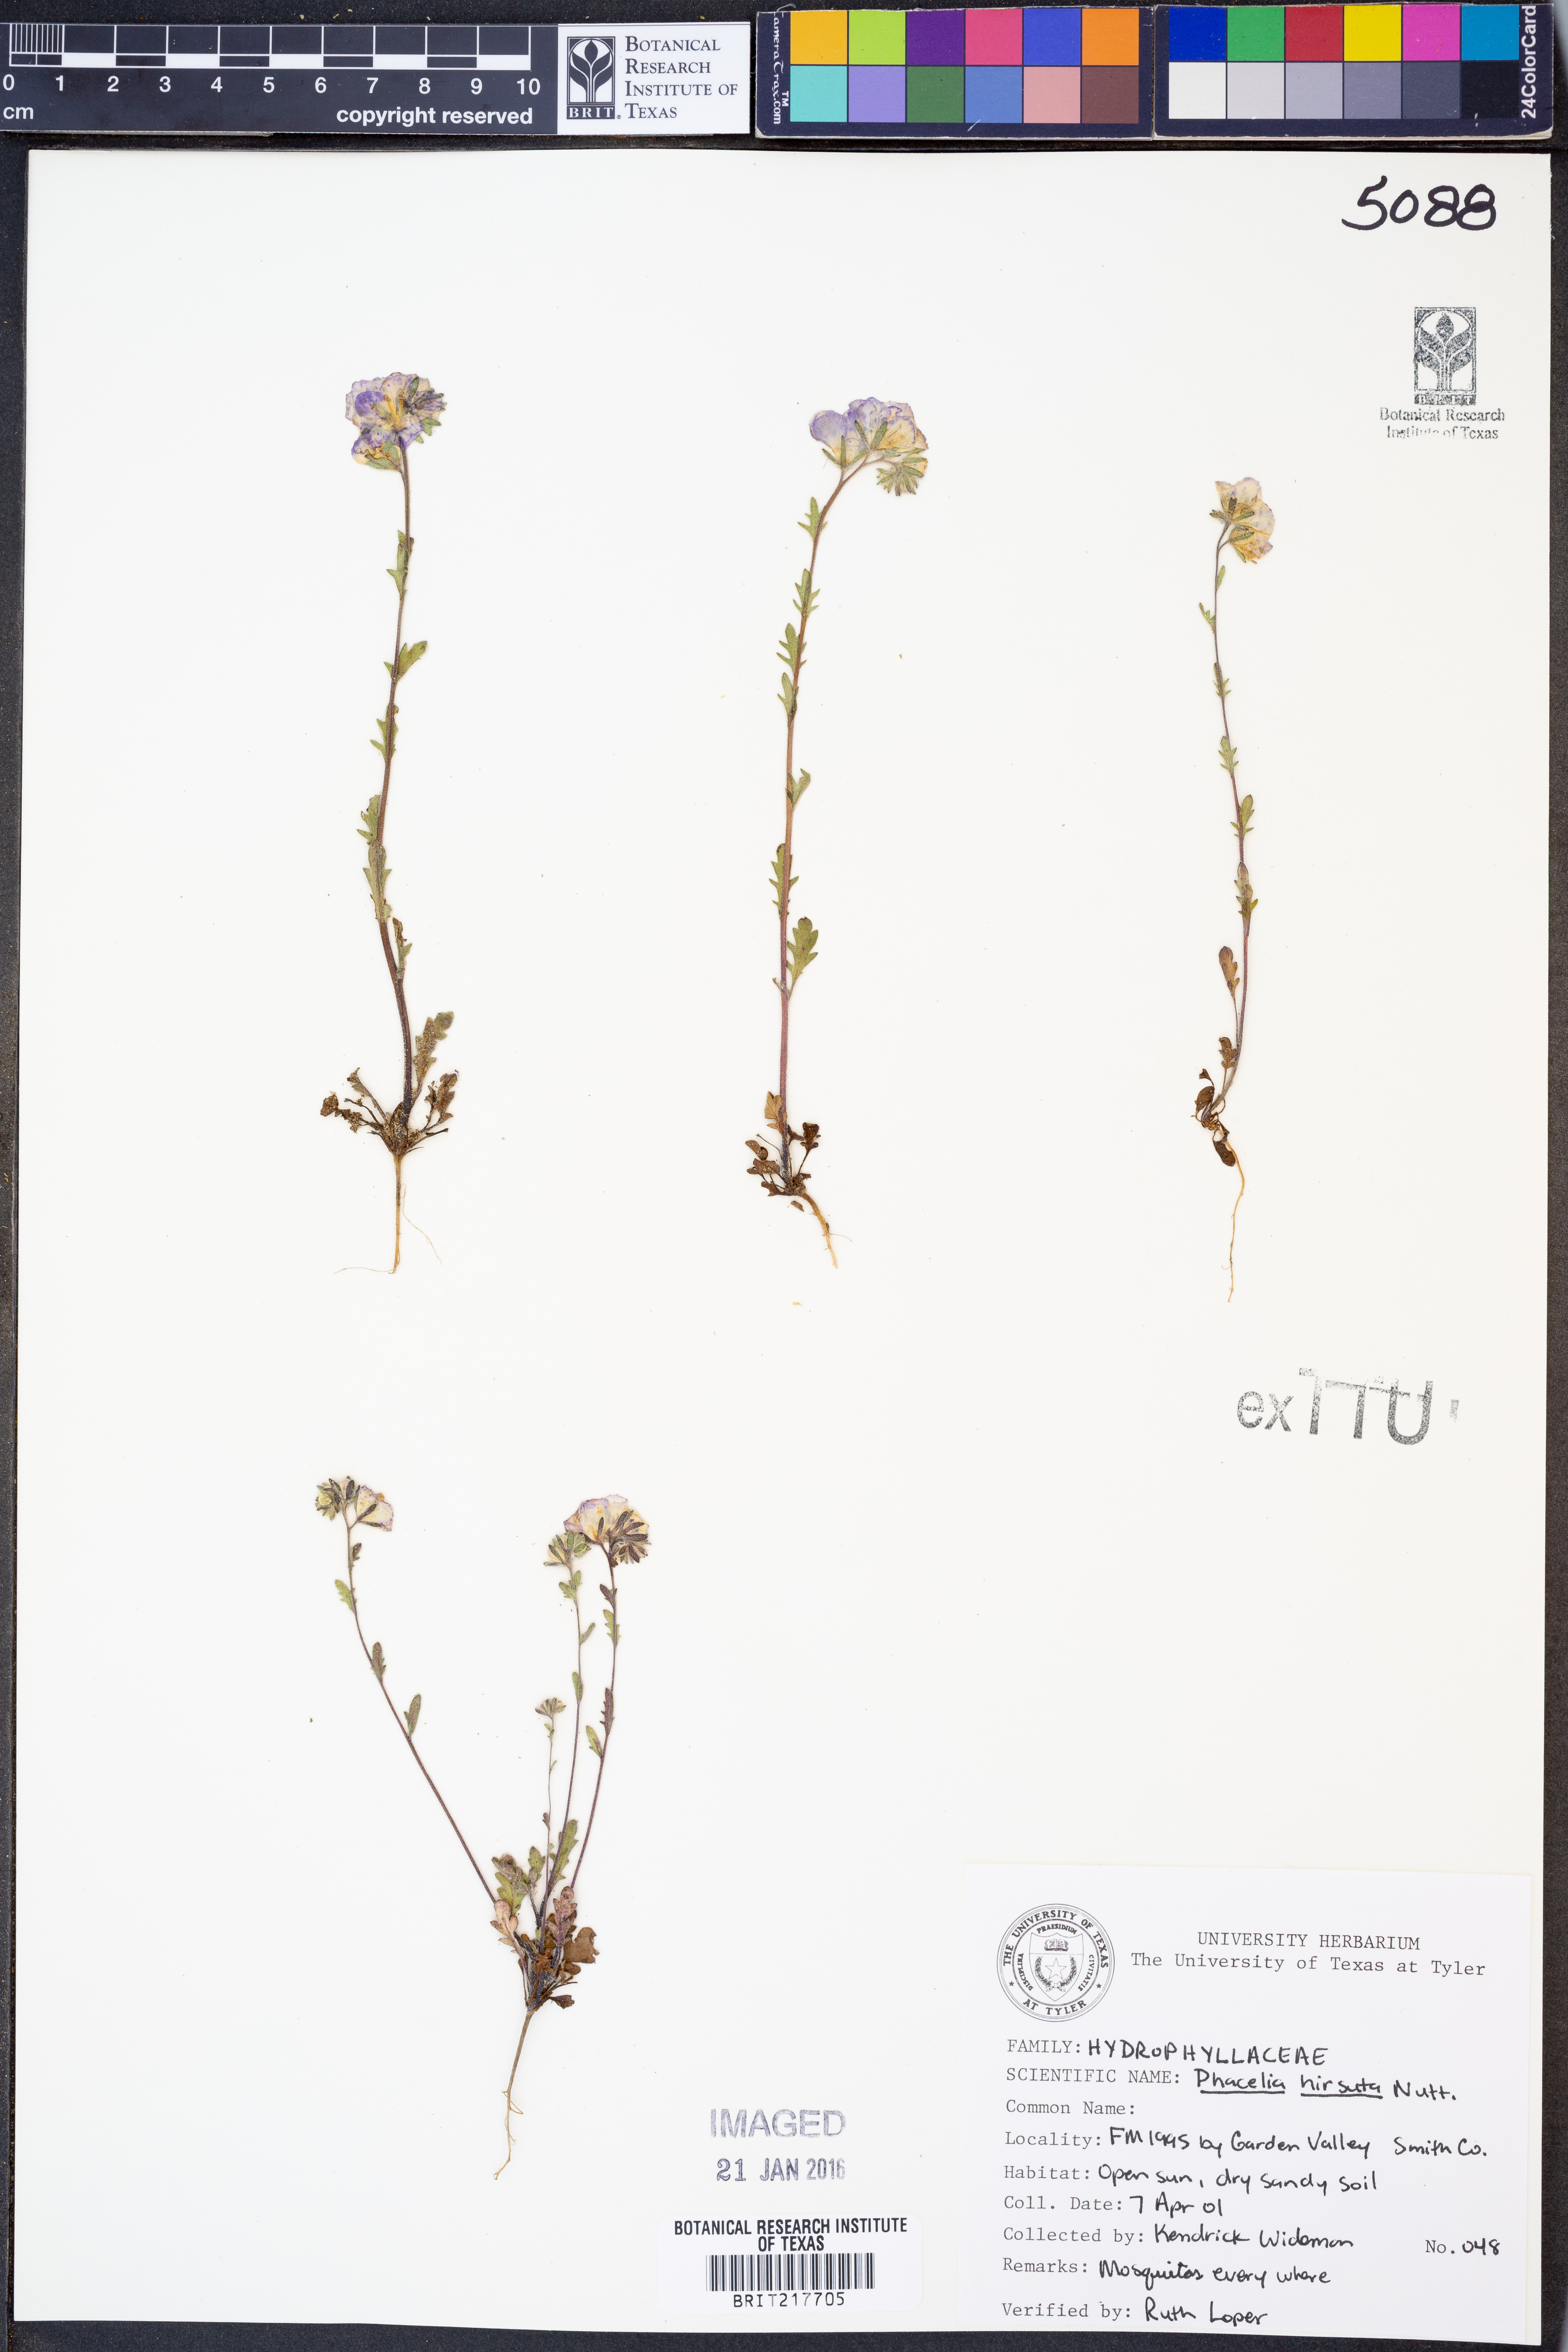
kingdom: Plantae
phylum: Tracheophyta
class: Magnoliopsida
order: Boraginales
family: Hydrophyllaceae
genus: Phacelia
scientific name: Phacelia hirsuta
